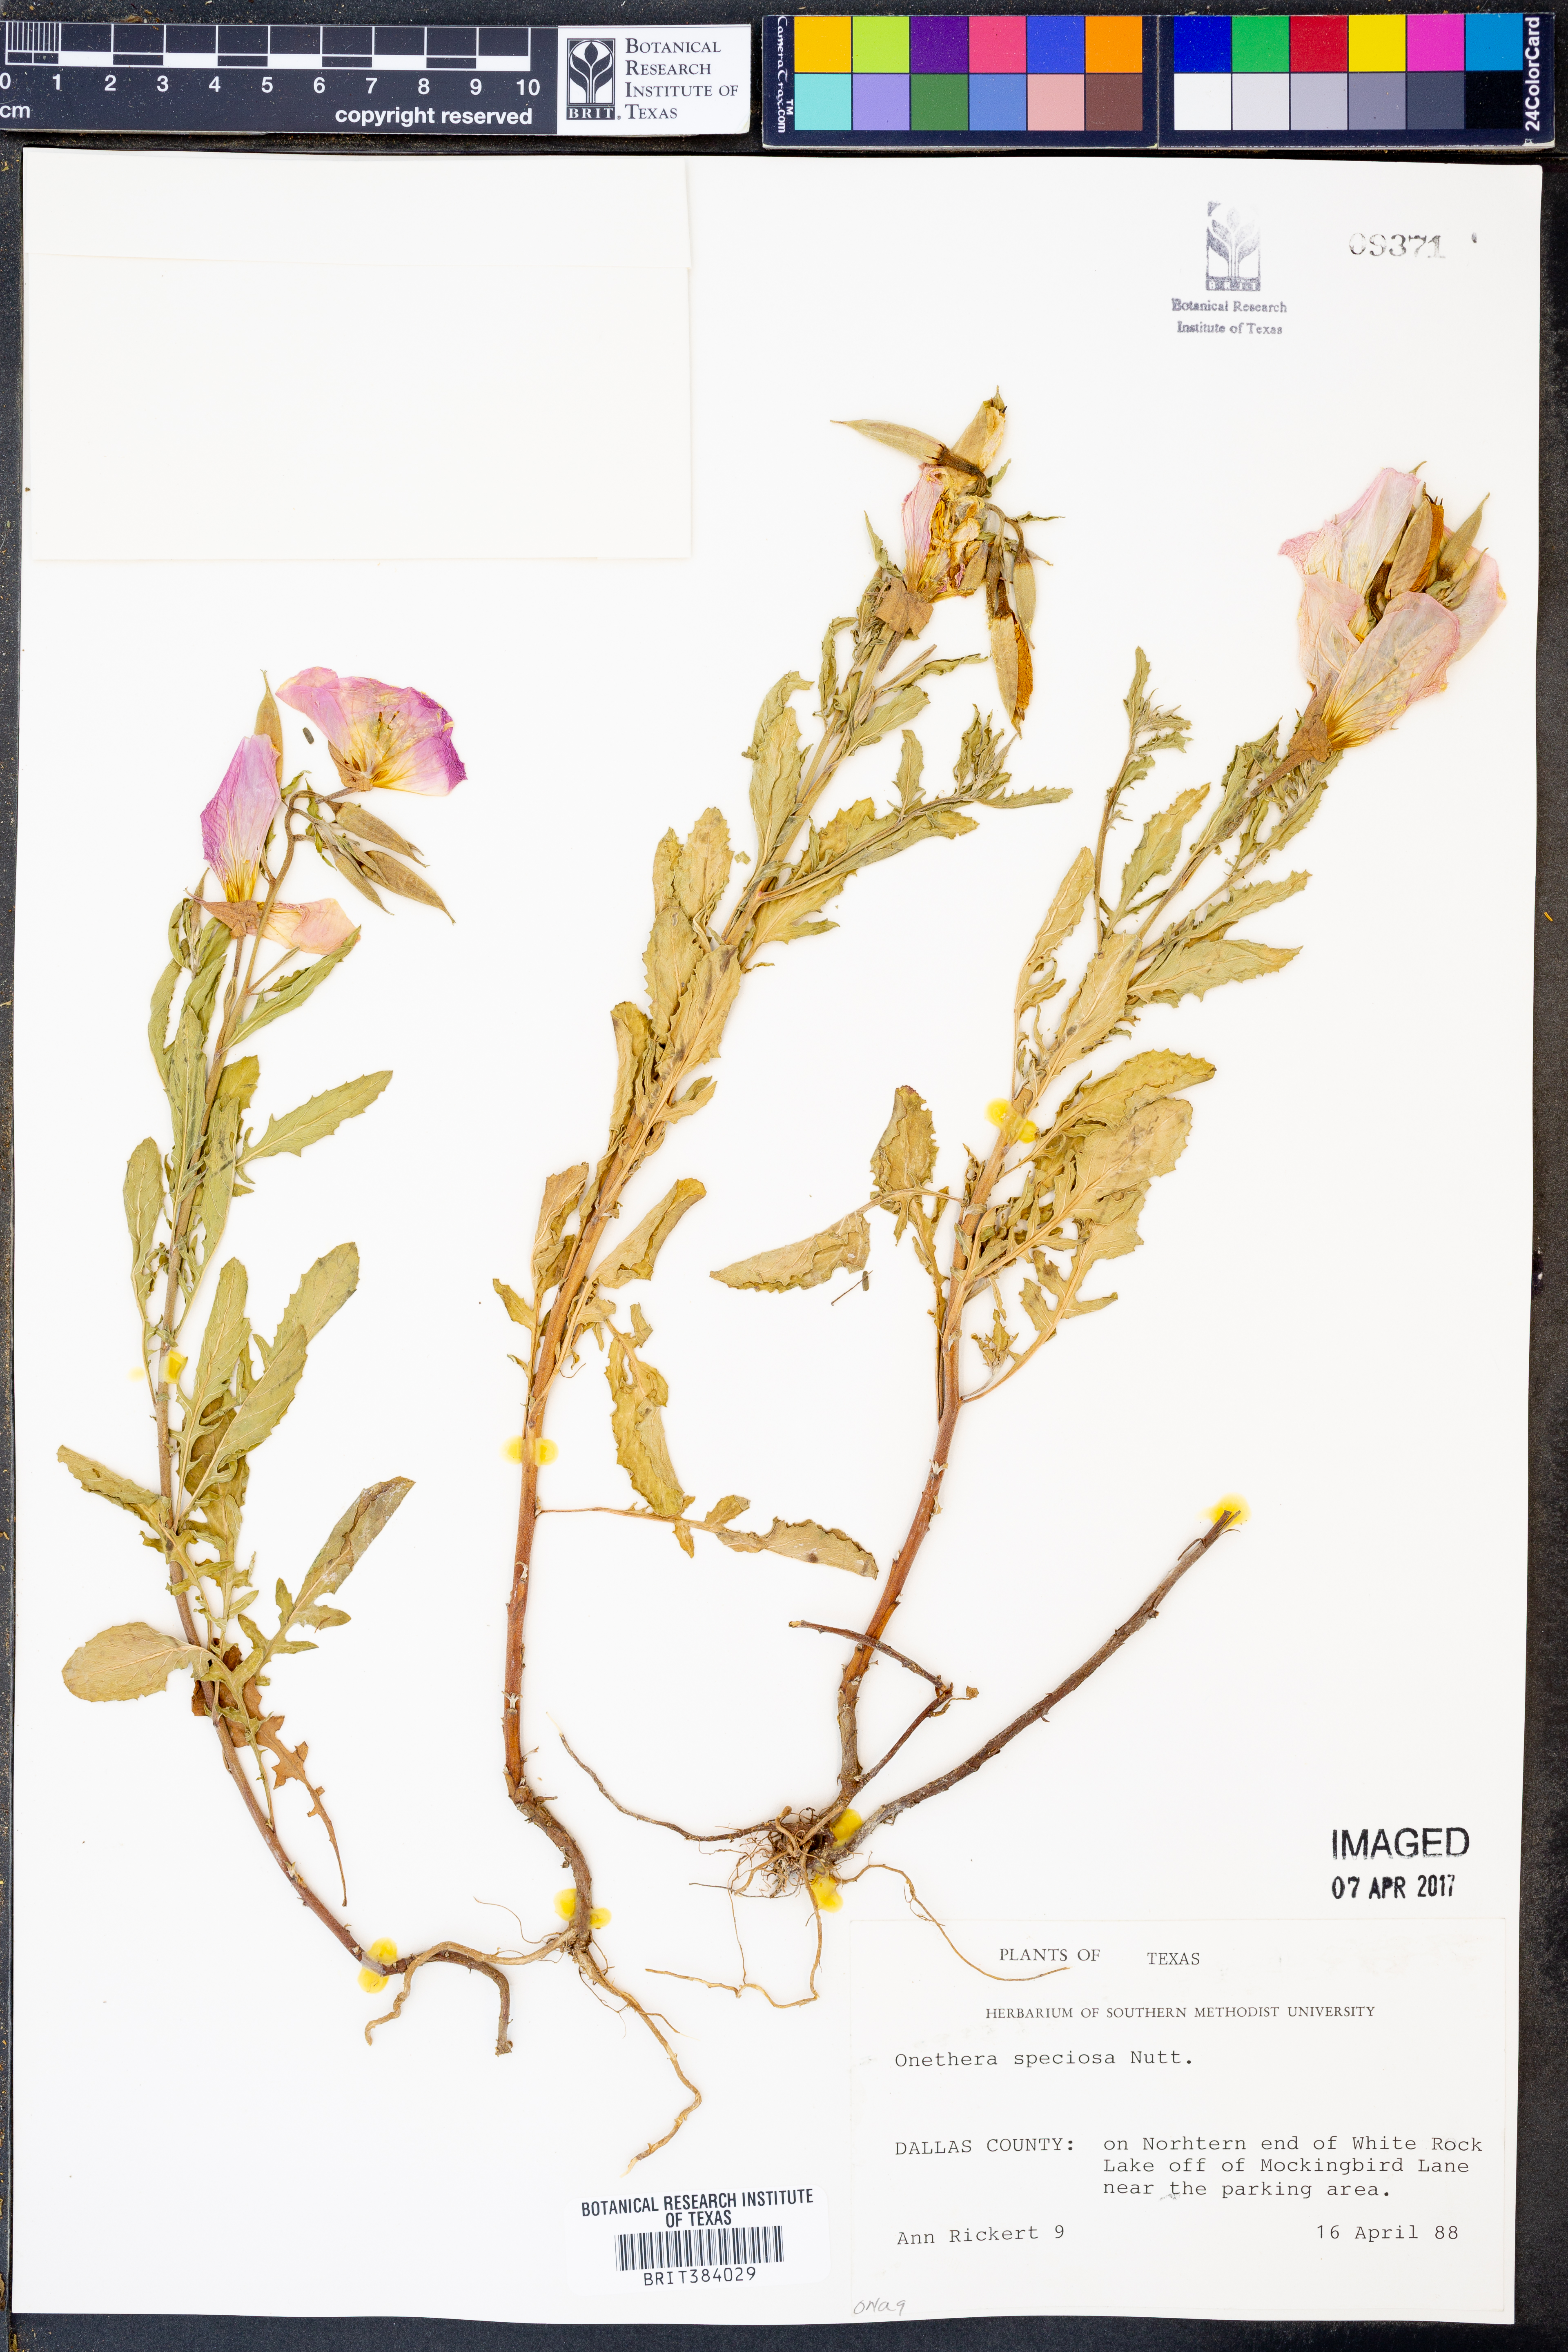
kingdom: Plantae
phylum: Tracheophyta
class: Magnoliopsida
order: Myrtales
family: Onagraceae
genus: Oenothera
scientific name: Oenothera speciosa
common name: White evening-primrose
